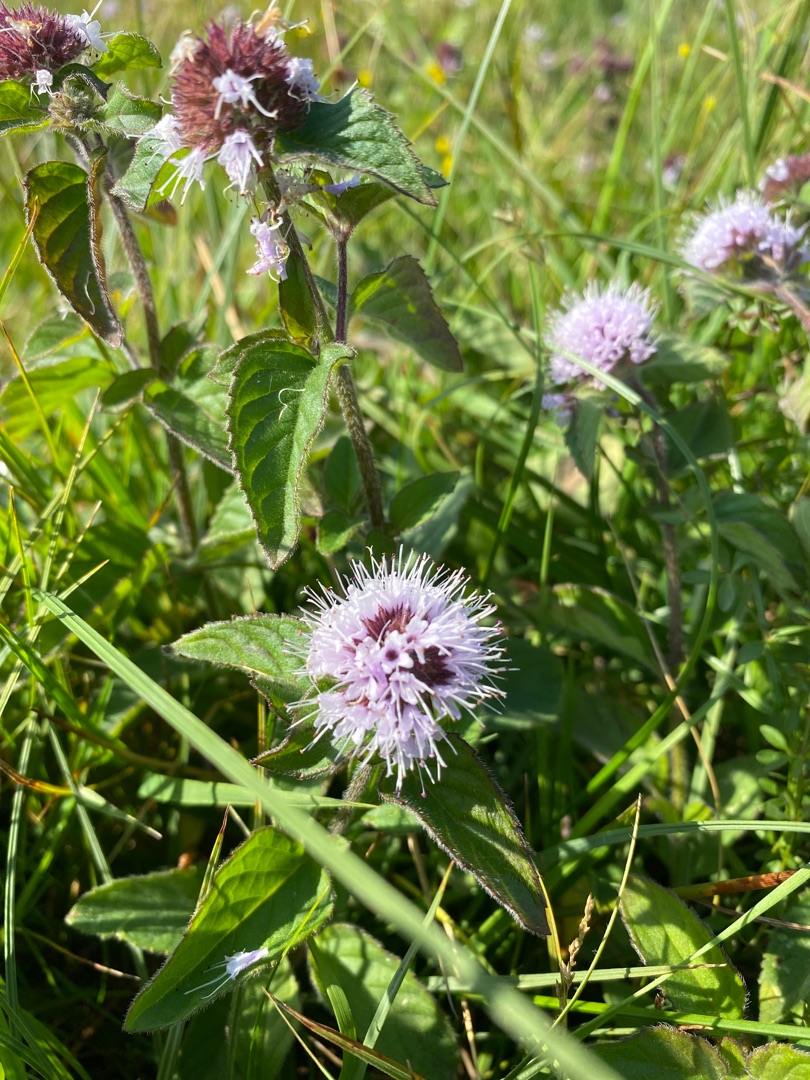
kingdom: Plantae
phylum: Tracheophyta
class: Magnoliopsida
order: Lamiales
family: Lamiaceae
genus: Mentha
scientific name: Mentha aquatica
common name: Vand-mynte
